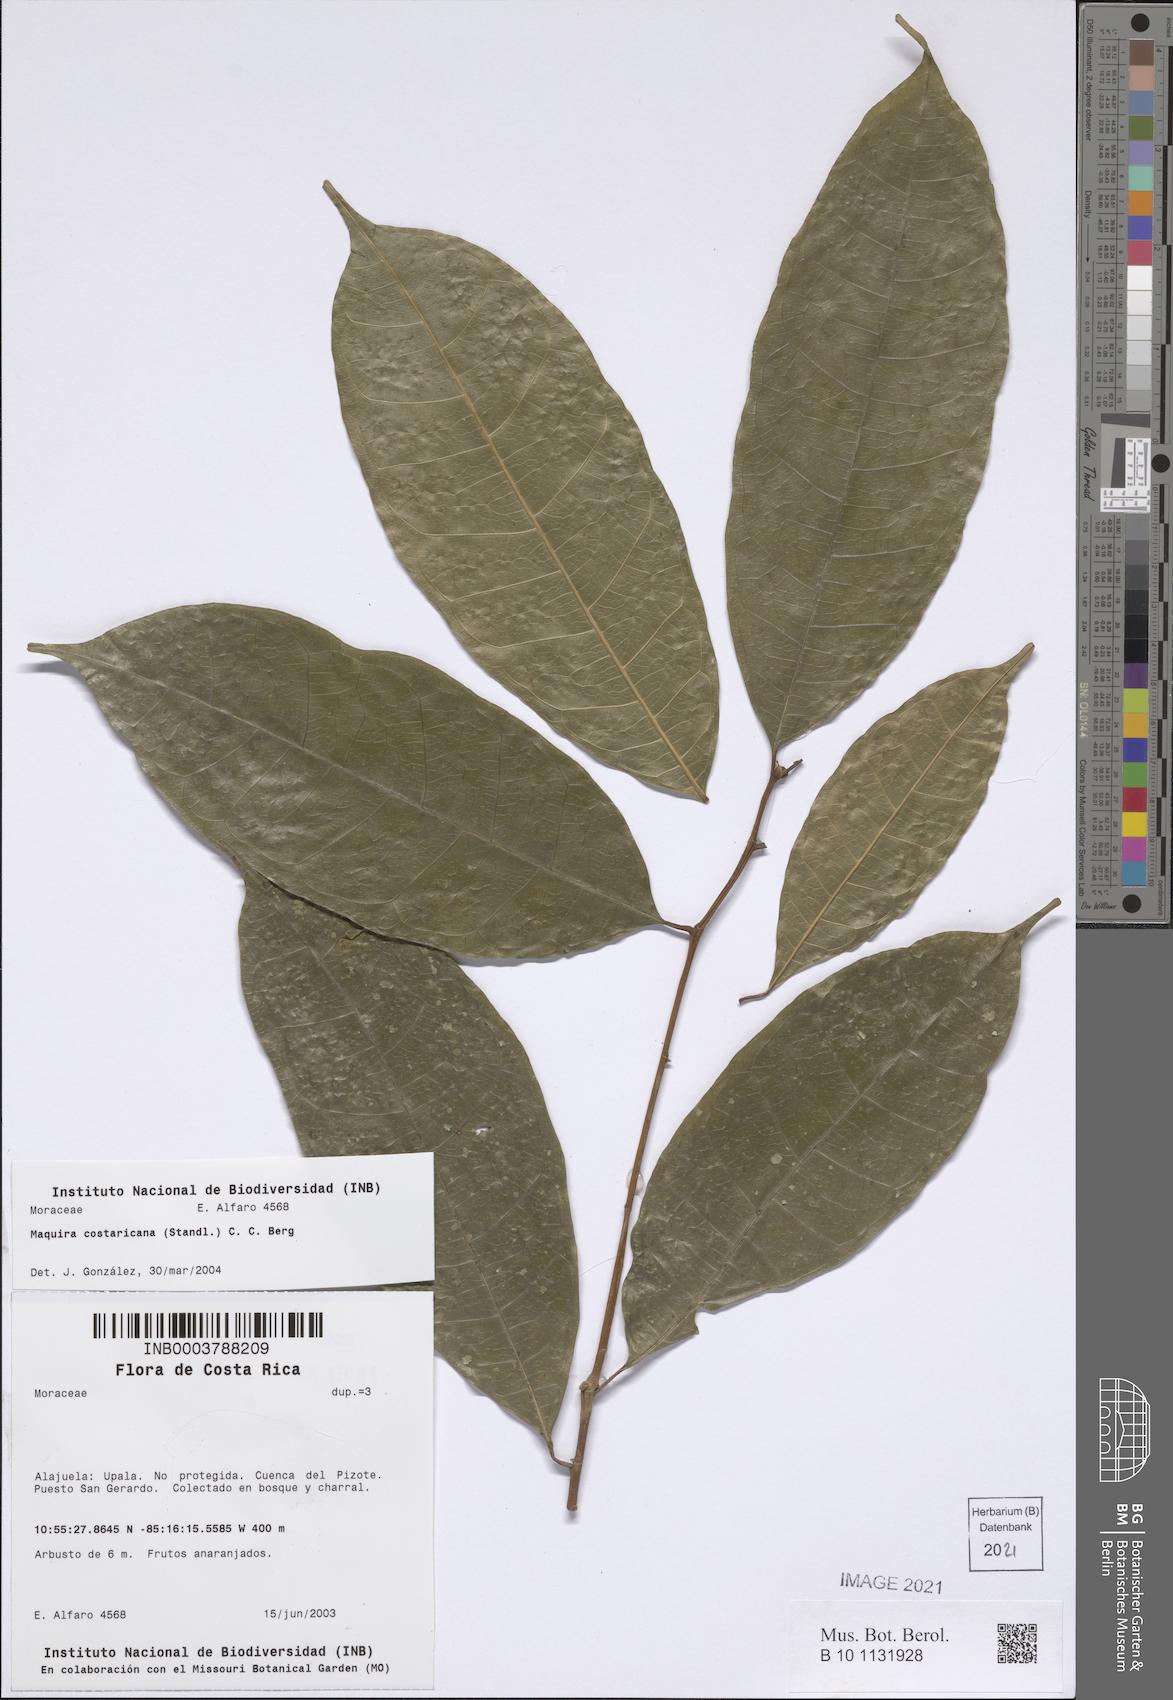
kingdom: Plantae
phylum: Tracheophyta
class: Magnoliopsida
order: Rosales
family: Moraceae
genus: Maquira
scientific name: Maquira guianensis
